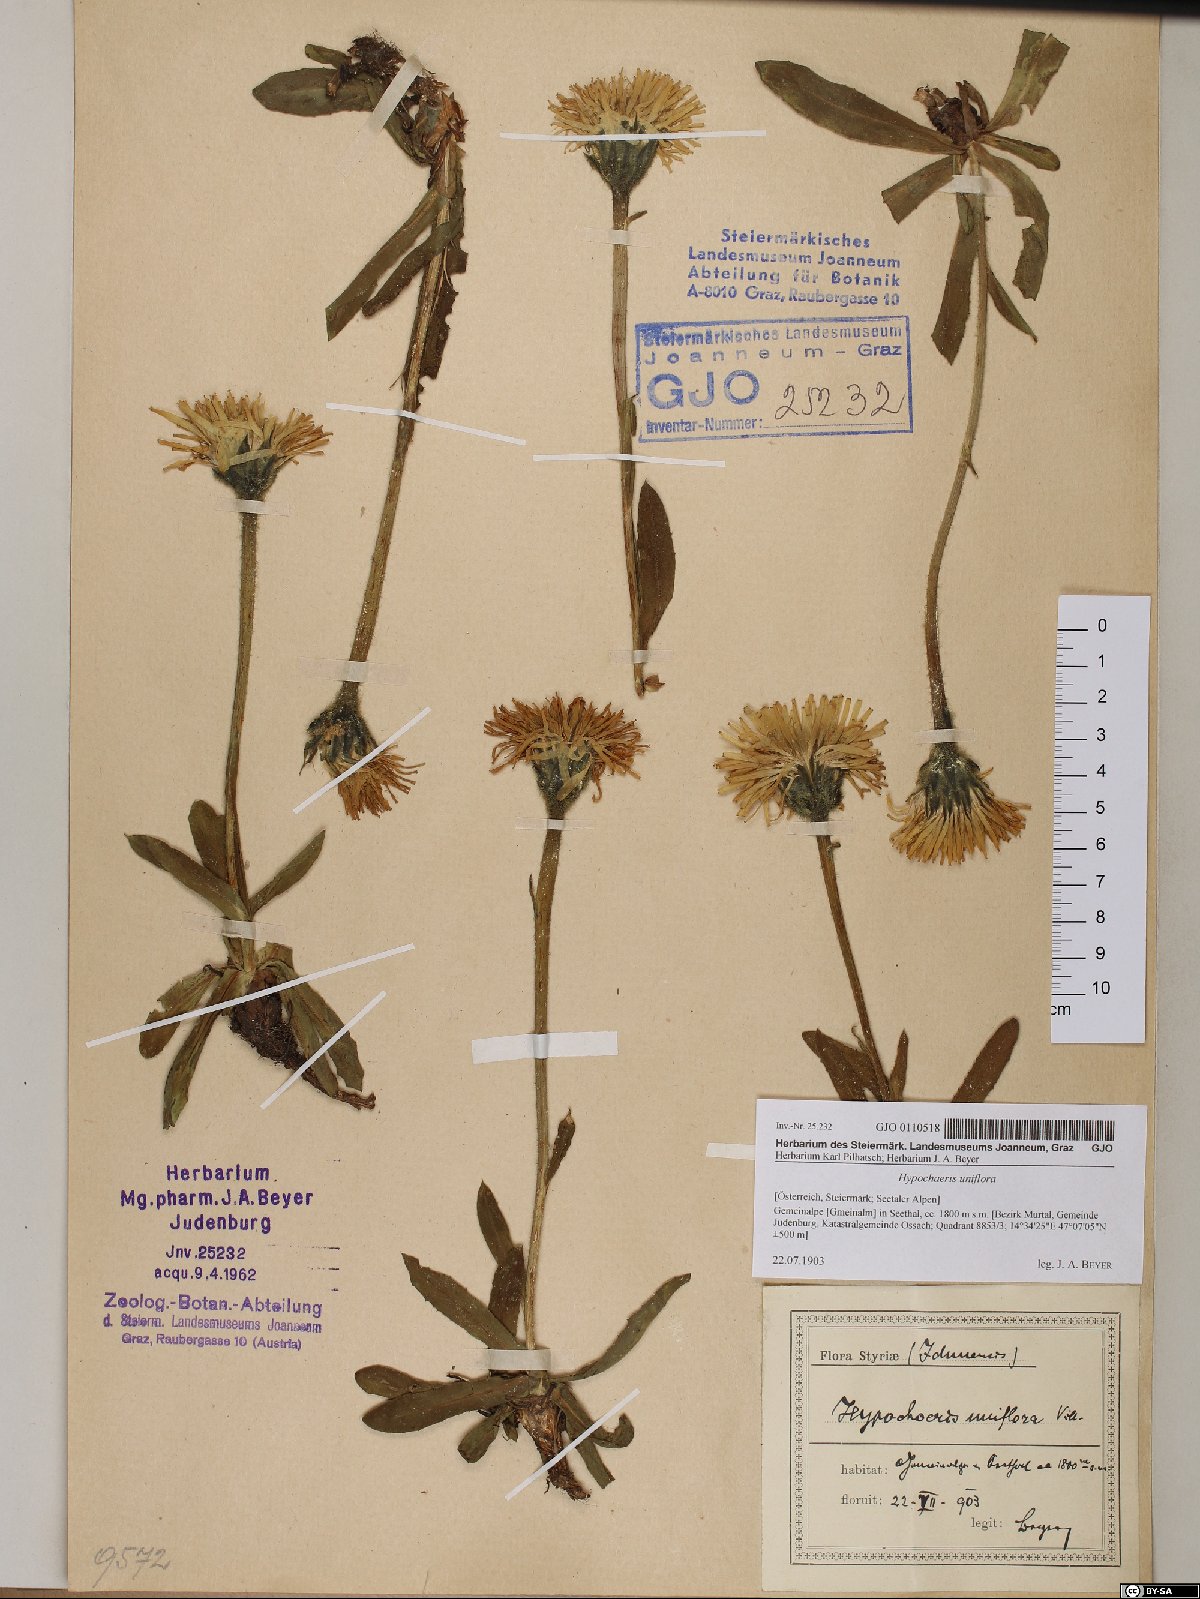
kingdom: Plantae
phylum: Tracheophyta
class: Magnoliopsida
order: Asterales
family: Asteraceae
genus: Trommsdorffia
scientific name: Trommsdorffia uniflora
